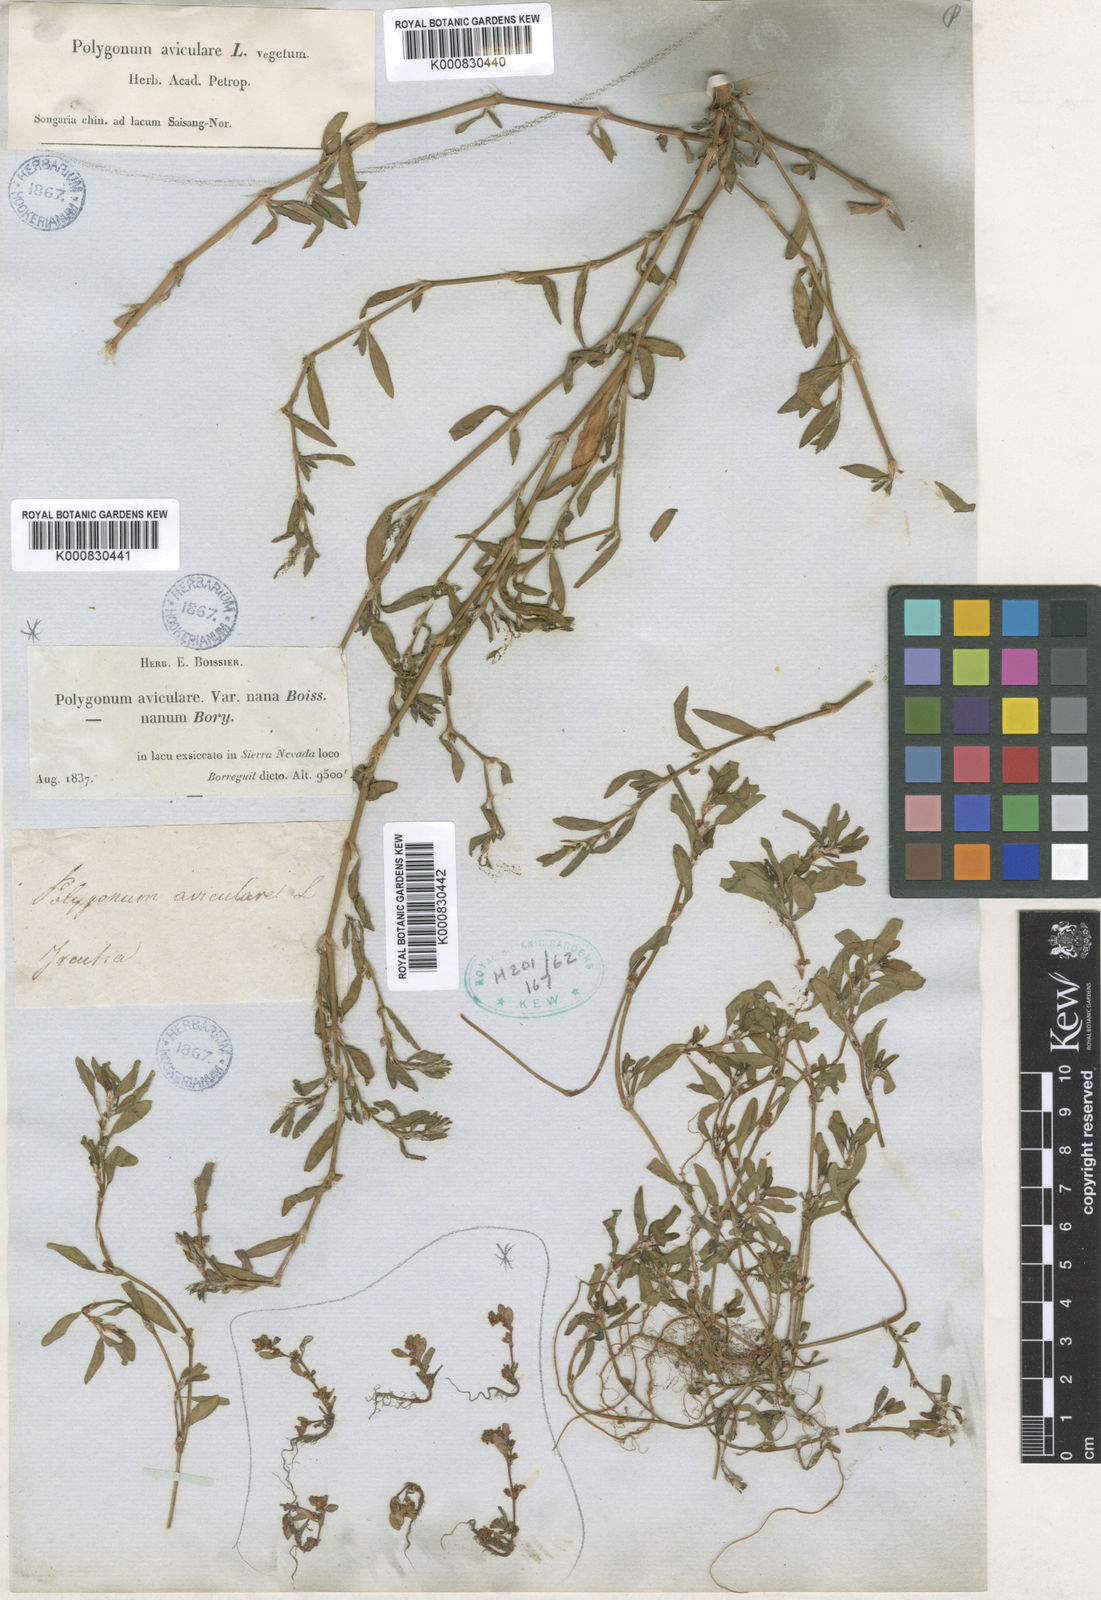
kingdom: Plantae
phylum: Tracheophyta
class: Magnoliopsida
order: Caryophyllales
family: Polygonaceae
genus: Polygonum
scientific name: Polygonum aviculare
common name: Prostrate knotweed
